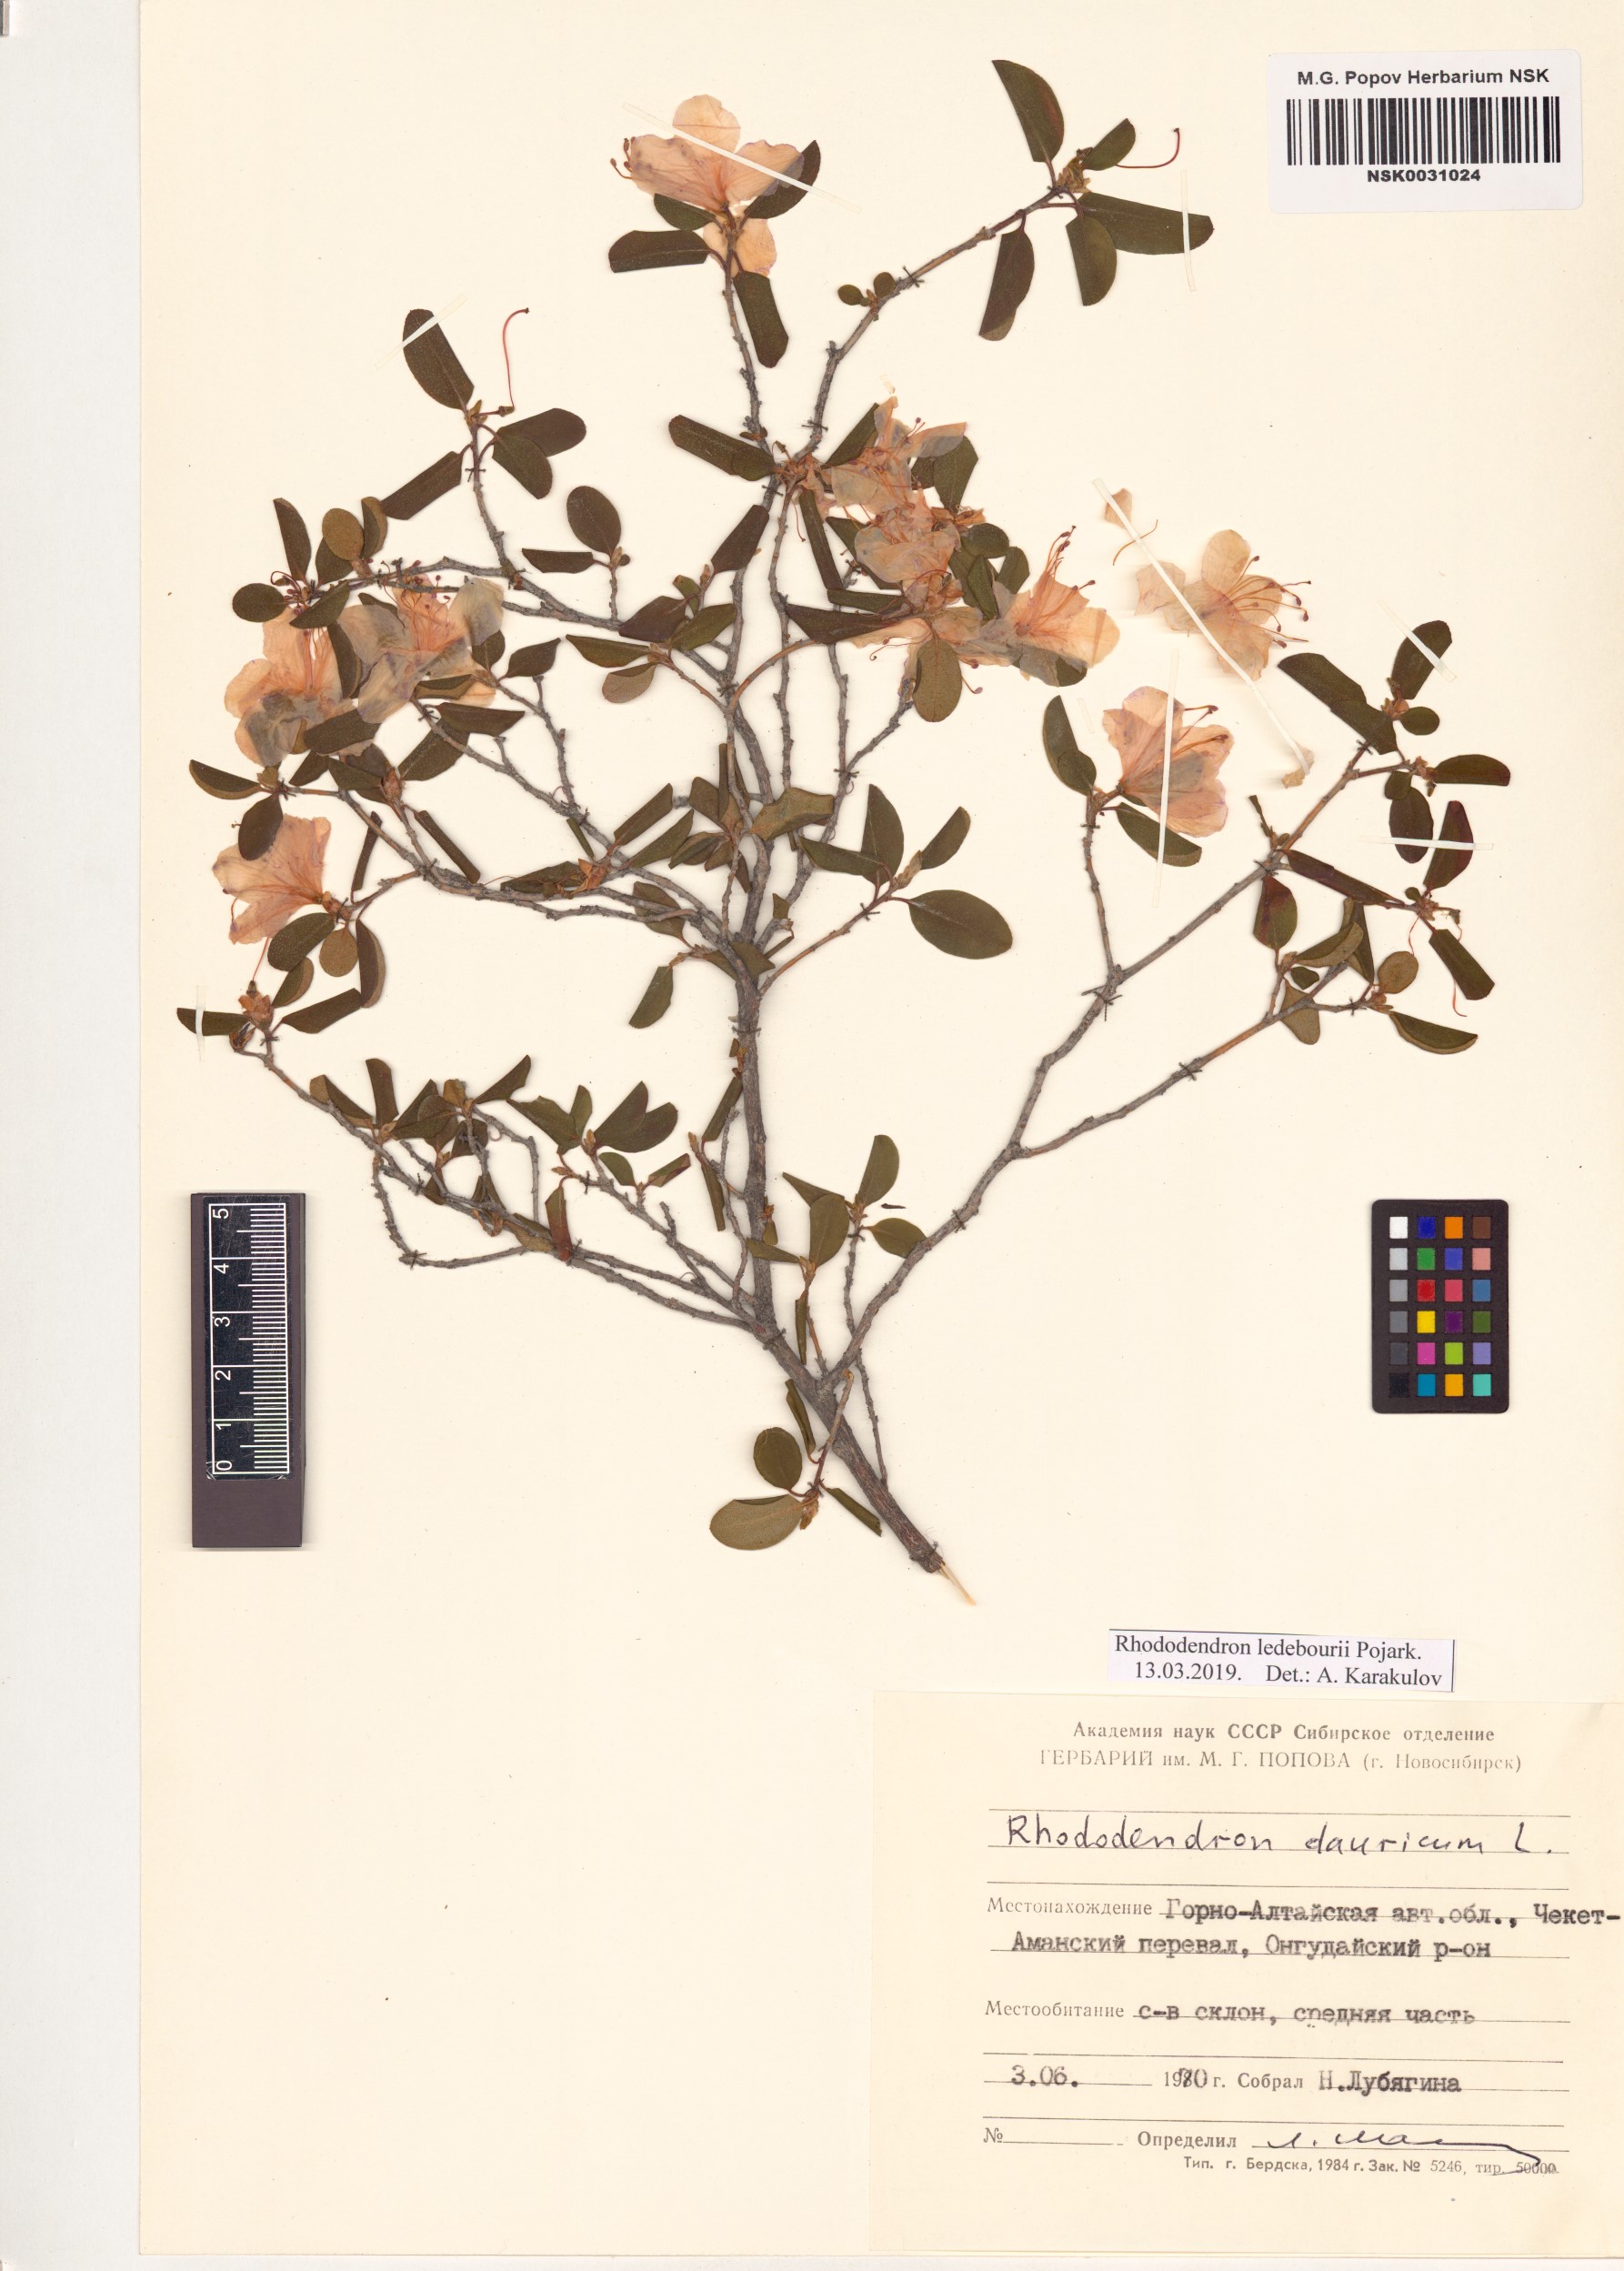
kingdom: Plantae
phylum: Tracheophyta
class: Magnoliopsida
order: Ericales
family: Ericaceae
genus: Rhododendron
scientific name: Rhododendron dauricum
